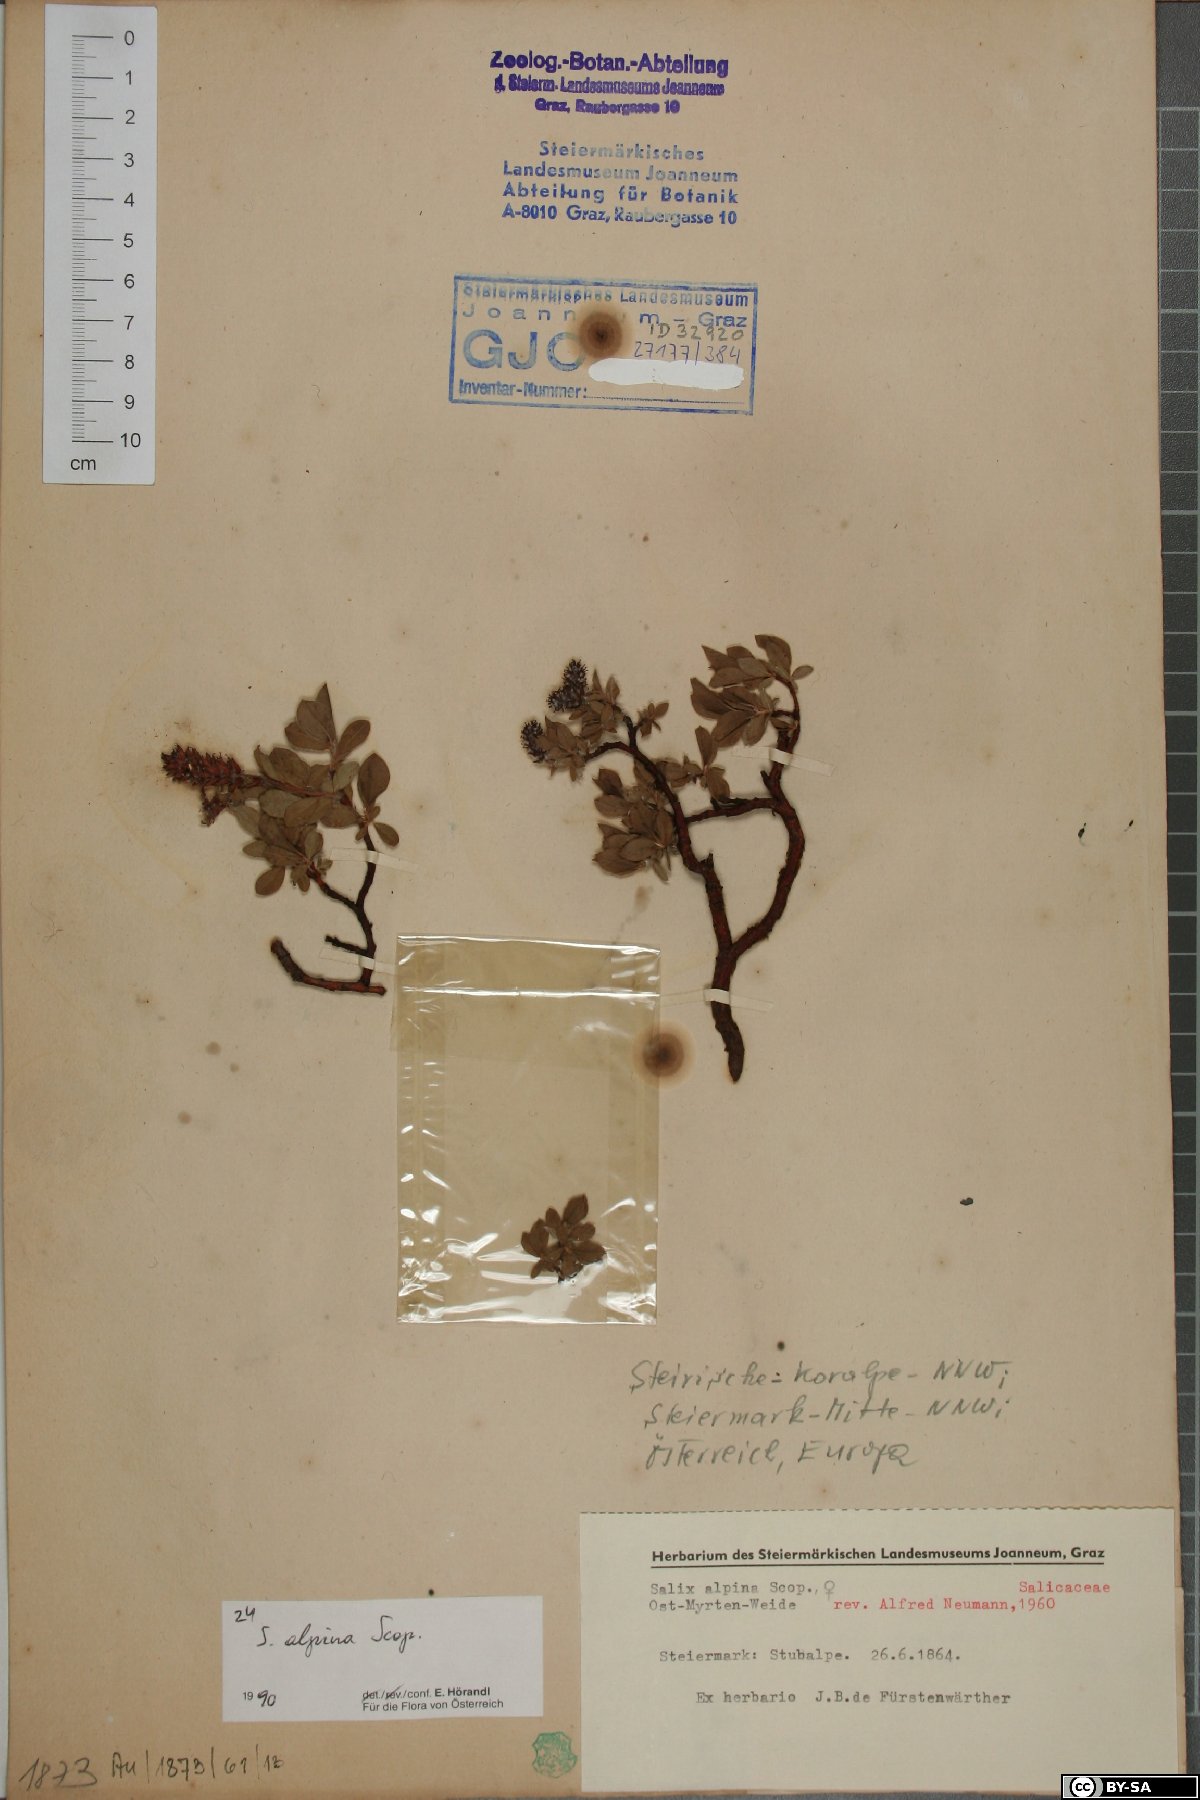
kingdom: Plantae
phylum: Tracheophyta
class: Magnoliopsida
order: Malpighiales
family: Salicaceae
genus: Salix
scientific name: Salix alpina
